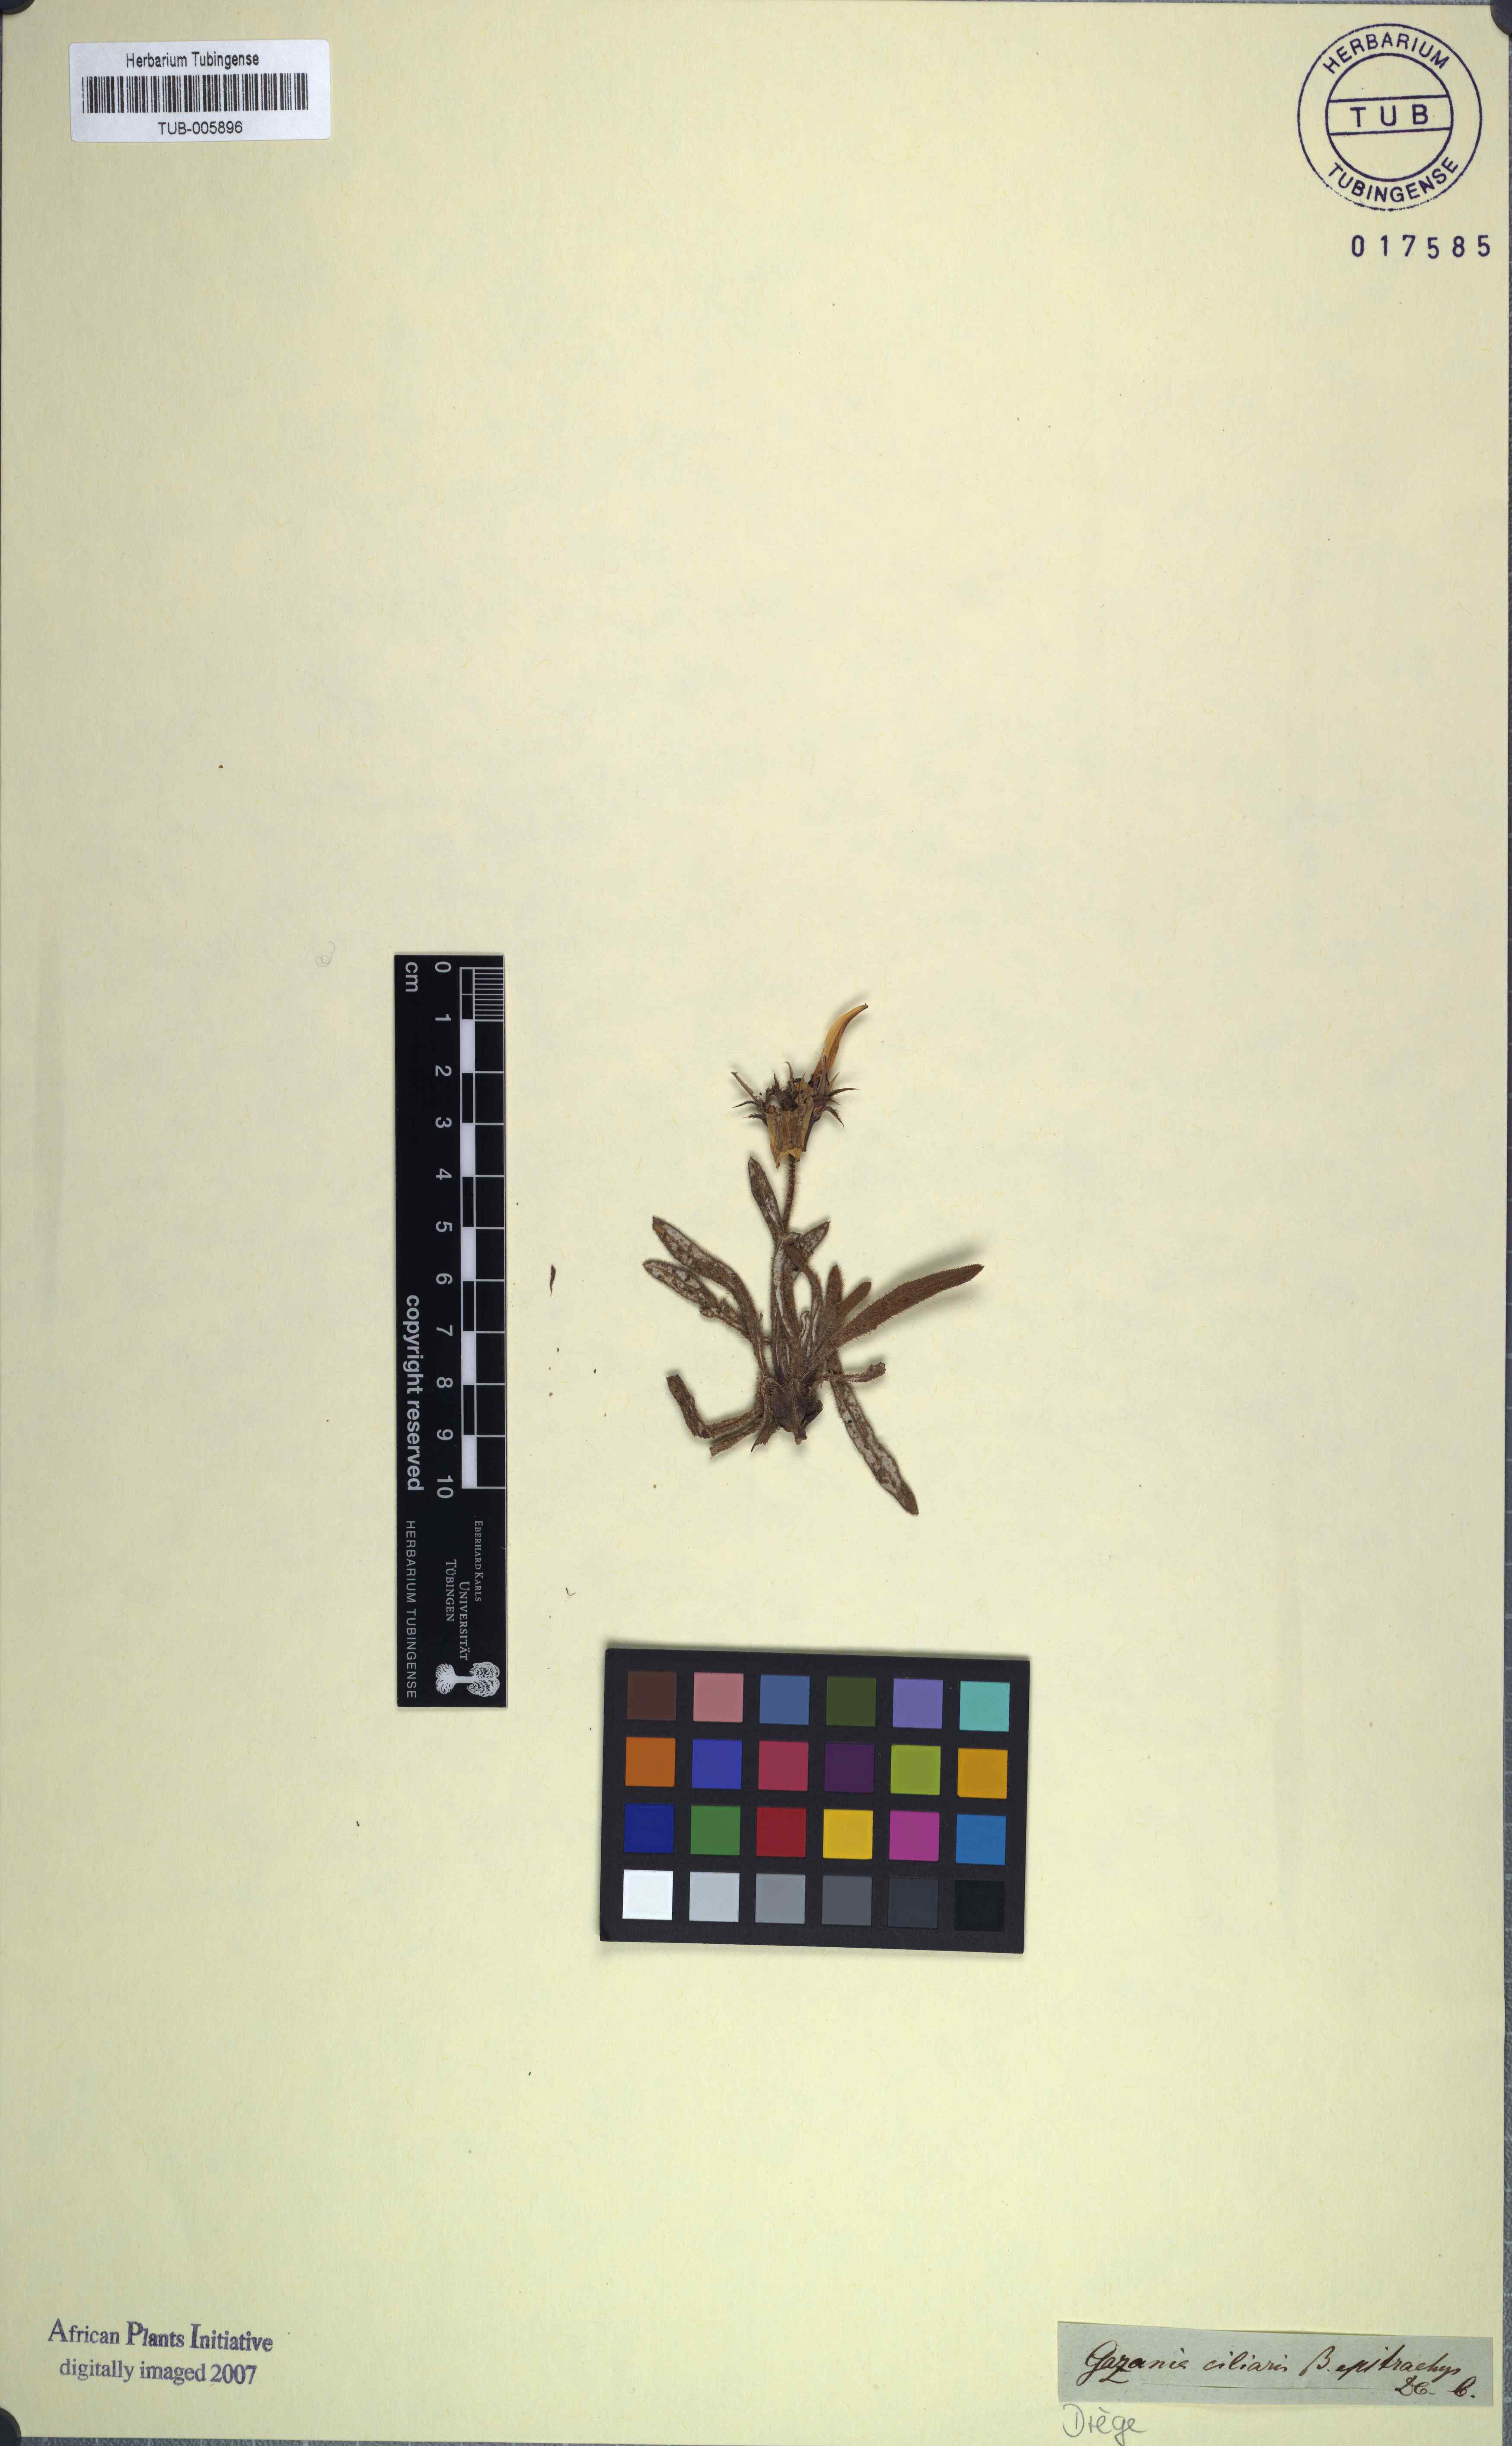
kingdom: Plantae
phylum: Tracheophyta
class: Magnoliopsida
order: Asterales
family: Asteraceae
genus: Gazania
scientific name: Gazania pectinata
